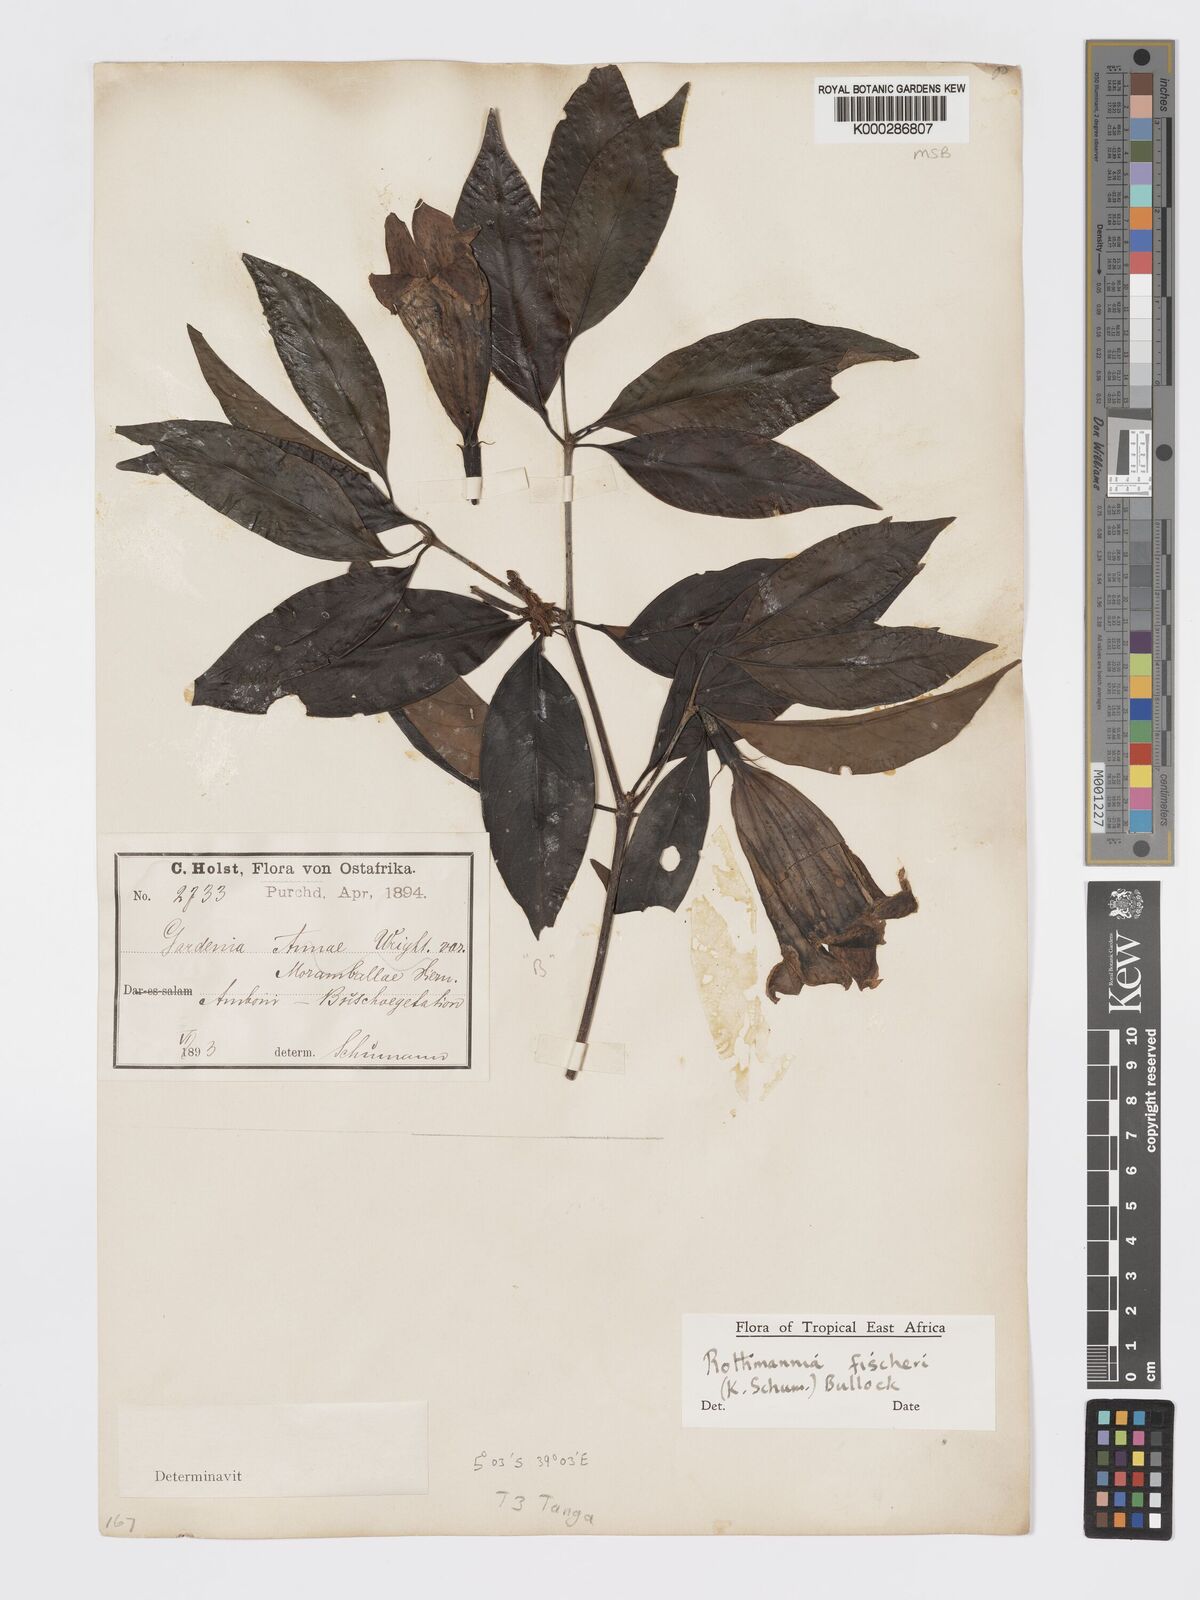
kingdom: Plantae
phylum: Tracheophyta
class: Magnoliopsida
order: Gentianales
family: Rubiaceae
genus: Rothmannia
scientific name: Rothmannia ravae
